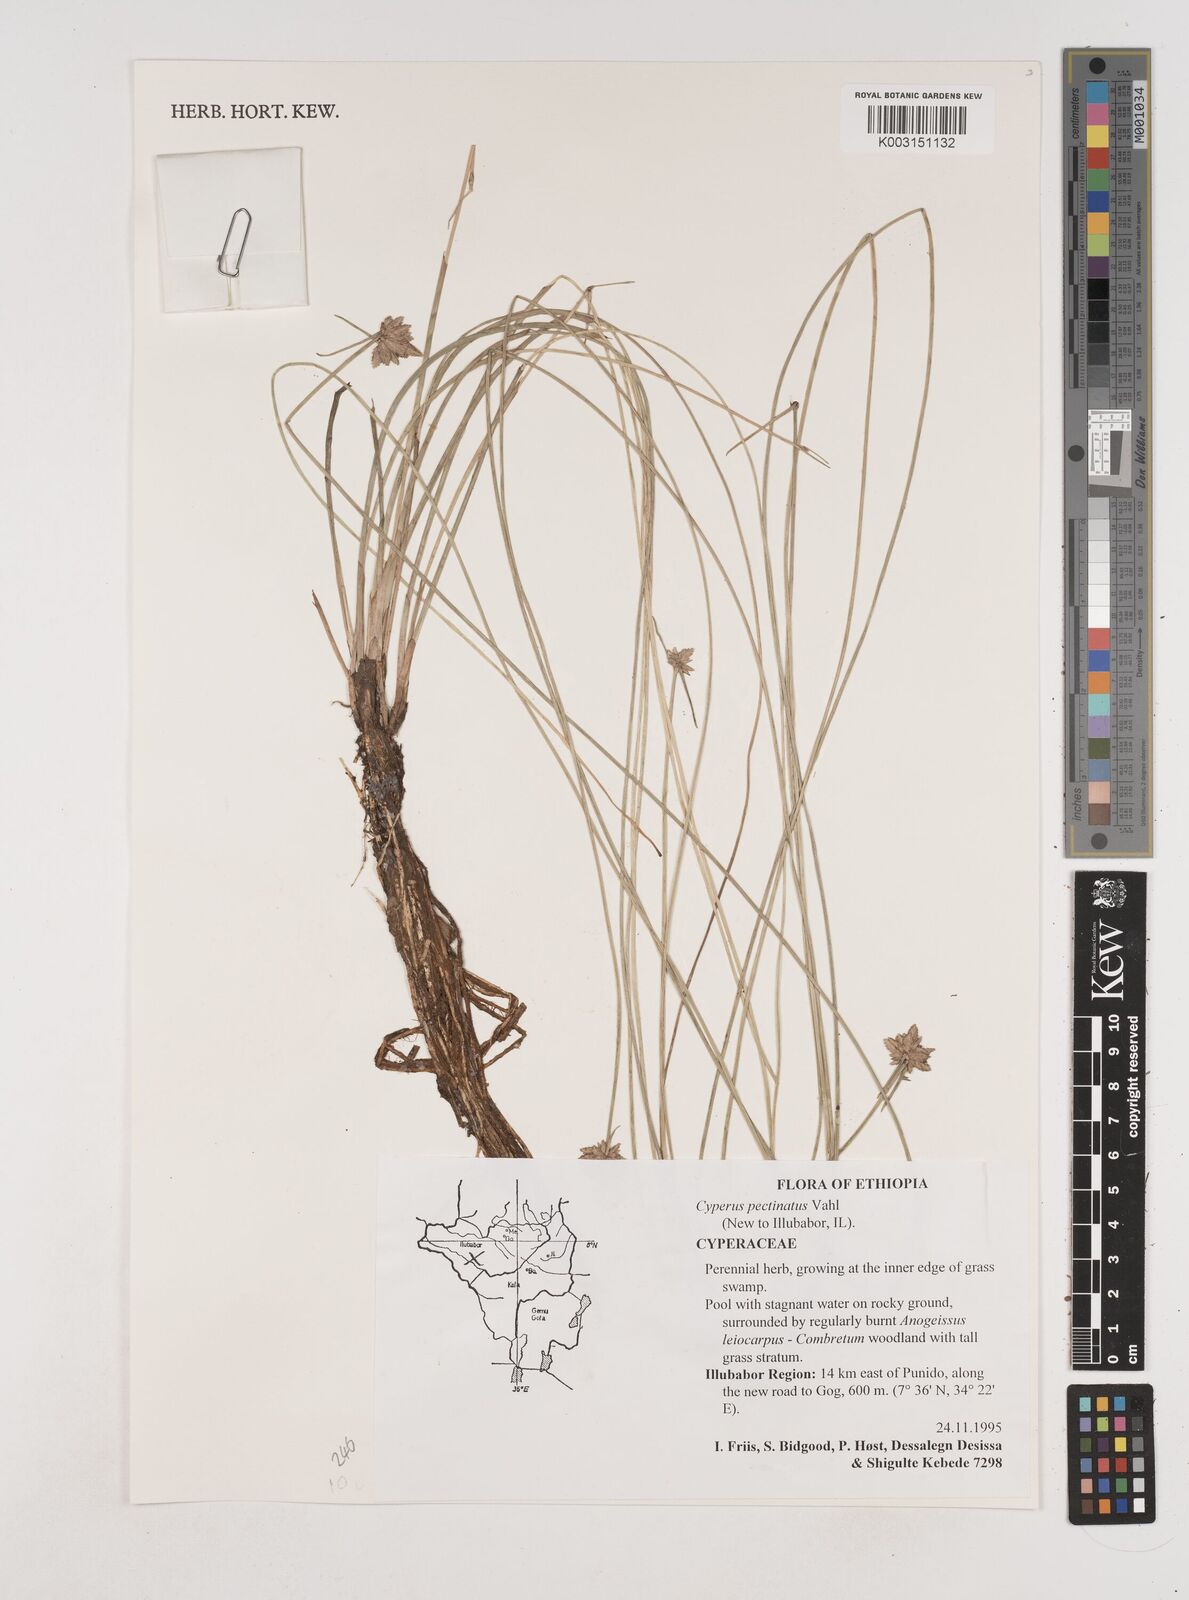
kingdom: Plantae
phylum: Tracheophyta
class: Liliopsida
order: Poales
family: Cyperaceae
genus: Cyperus
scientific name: Cyperus pectinatus
